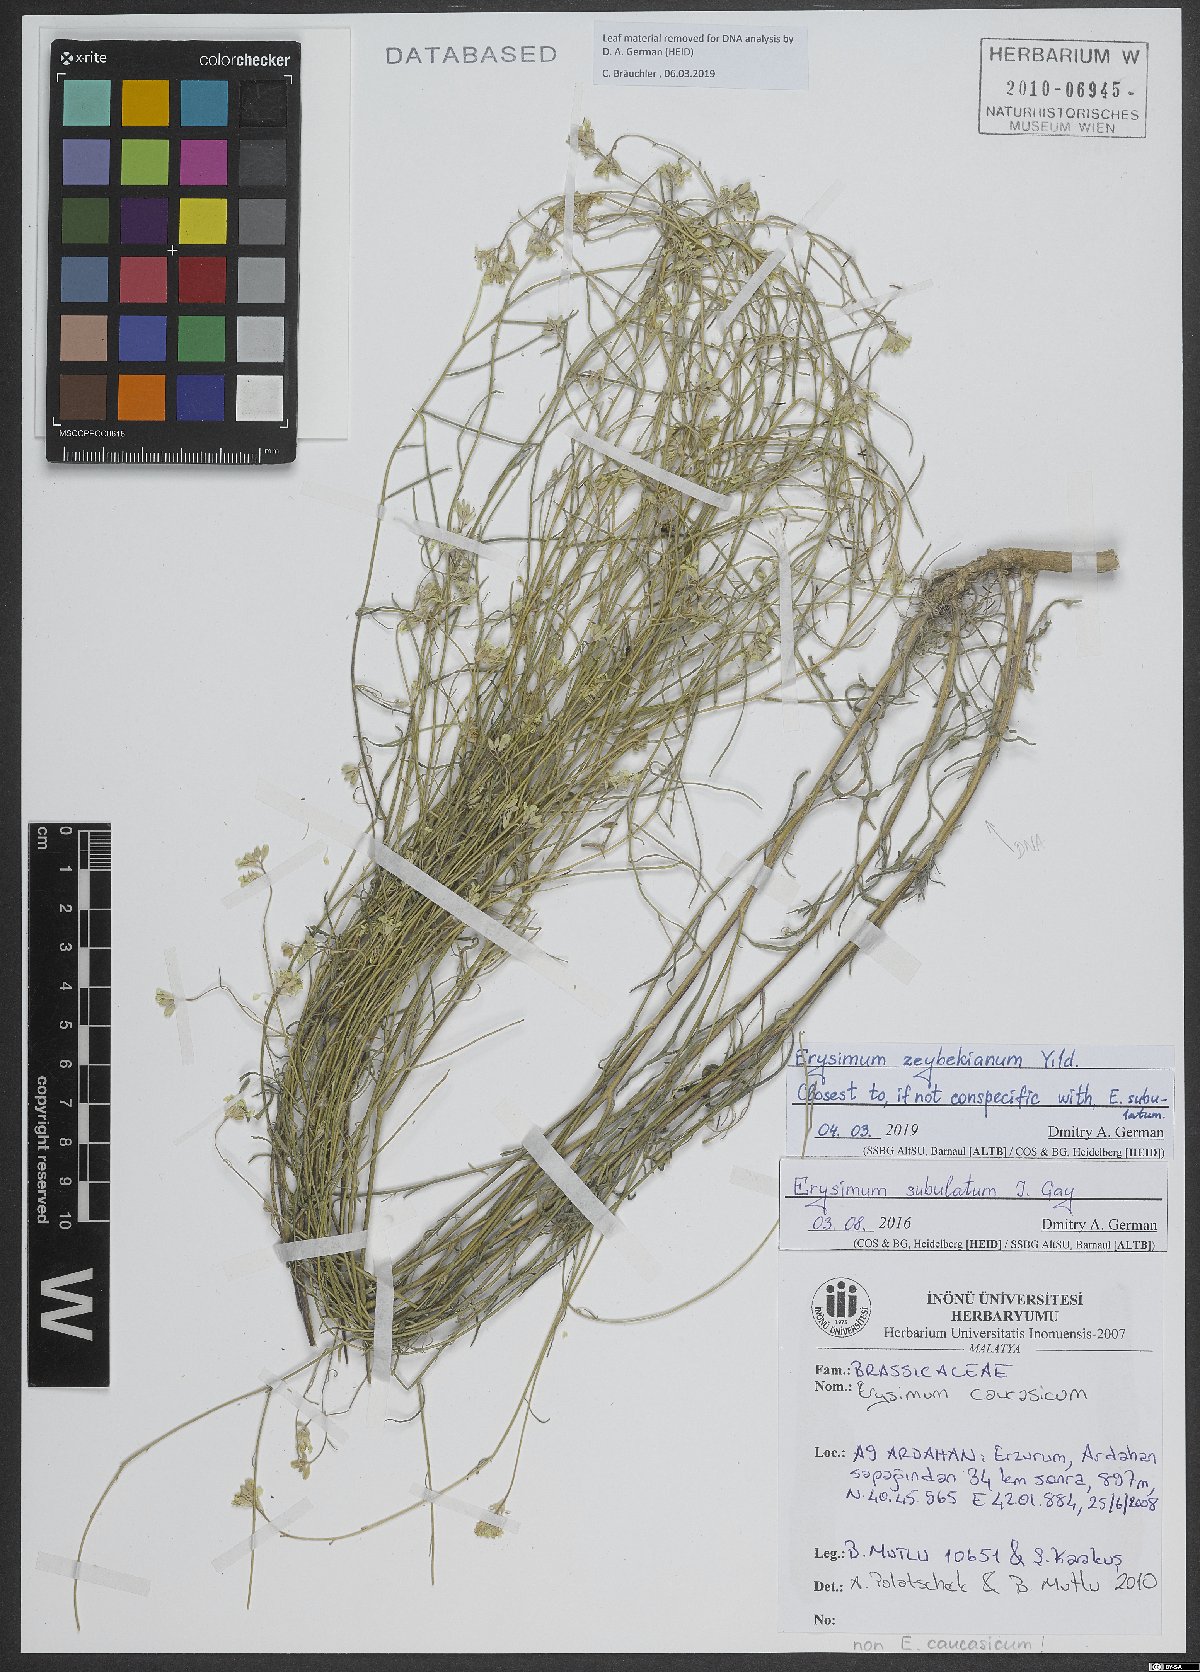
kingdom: Plantae
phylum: Tracheophyta
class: Magnoliopsida
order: Brassicales
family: Brassicaceae
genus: Erysimum
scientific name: Erysimum subulatum
